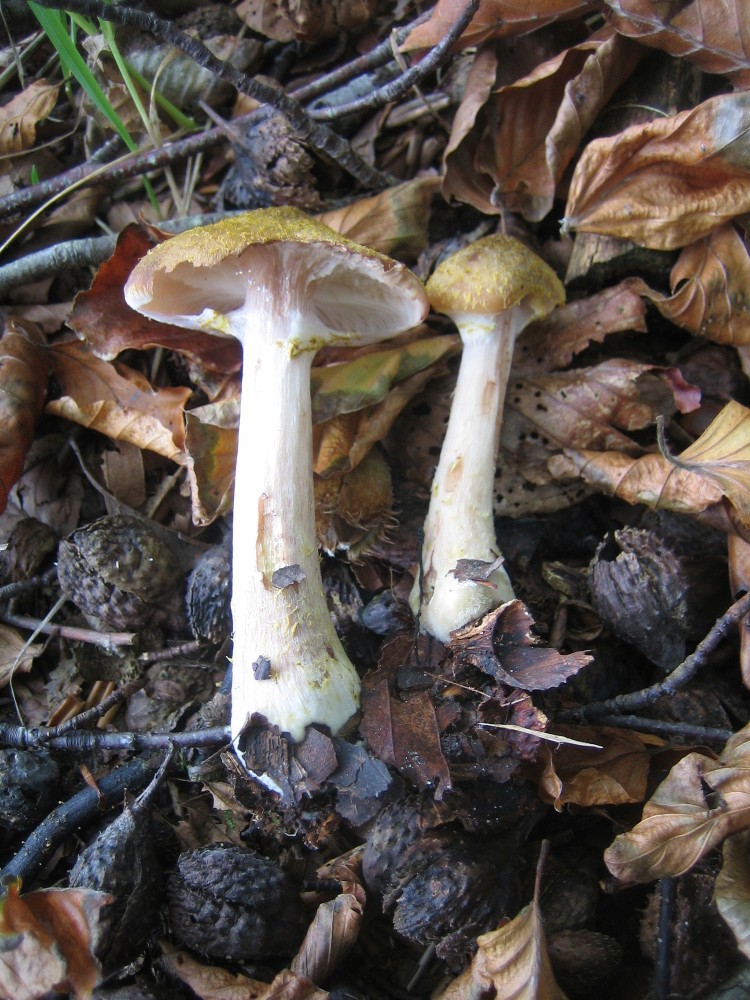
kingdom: Fungi
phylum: Basidiomycota
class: Agaricomycetes
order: Agaricales
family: Physalacriaceae
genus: Armillaria
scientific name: Armillaria lutea
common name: køllestokket honningsvamp
